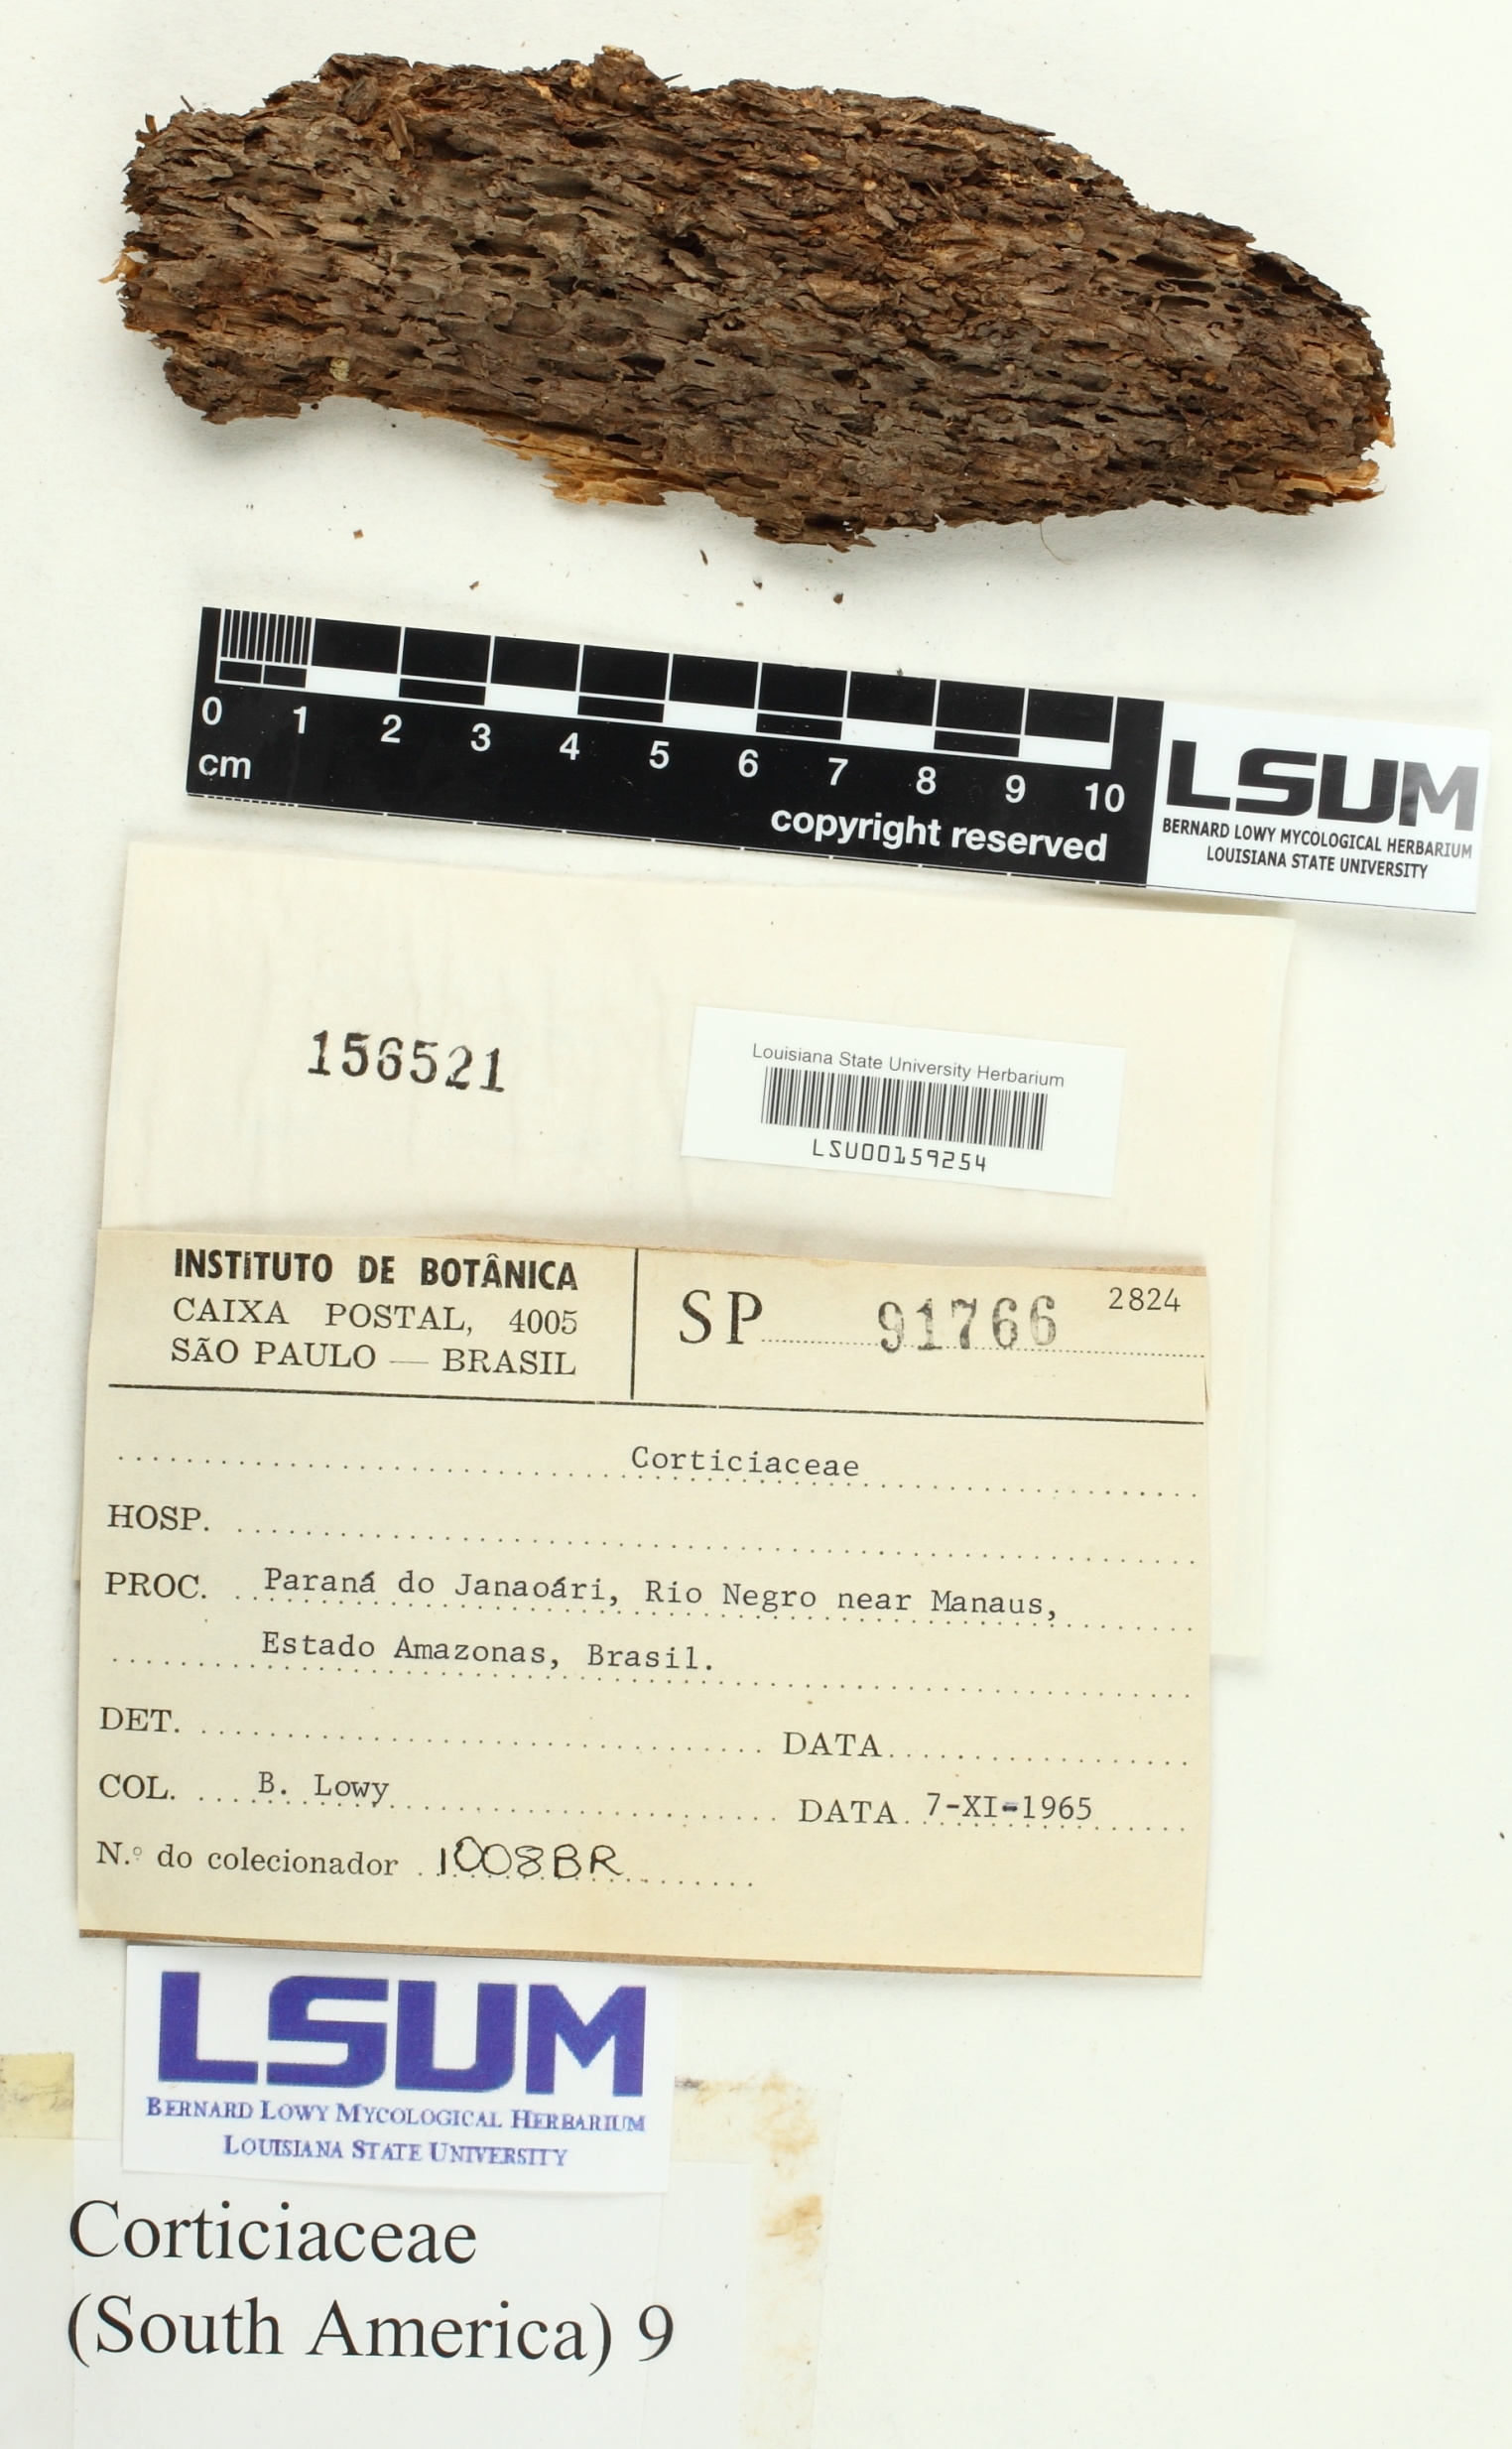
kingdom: Fungi
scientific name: Fungi
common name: Fungi
